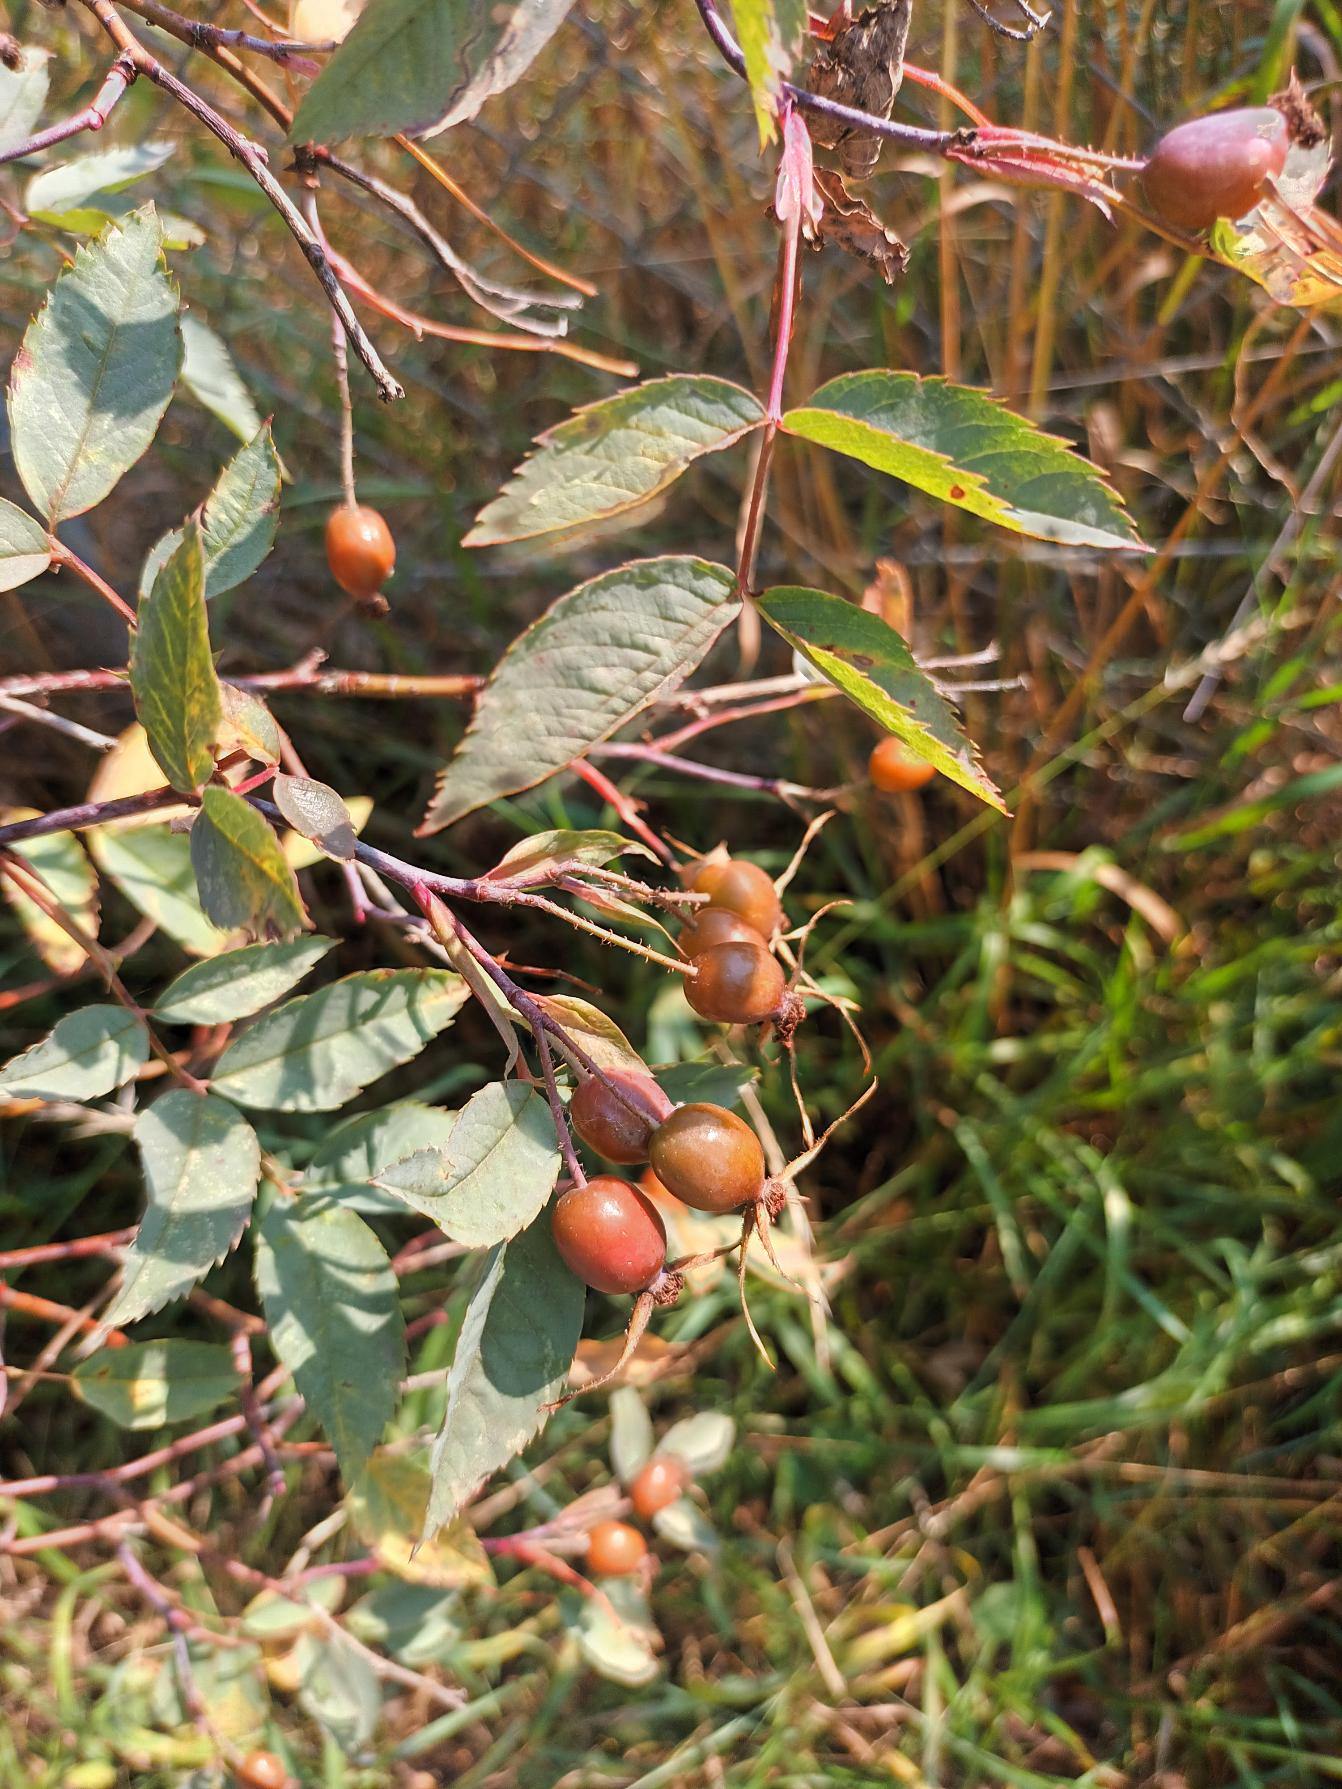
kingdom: Plantae
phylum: Tracheophyta
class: Magnoliopsida
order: Rosales
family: Rosaceae
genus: Rosa
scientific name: Rosa glauca
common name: Kobber-rose
